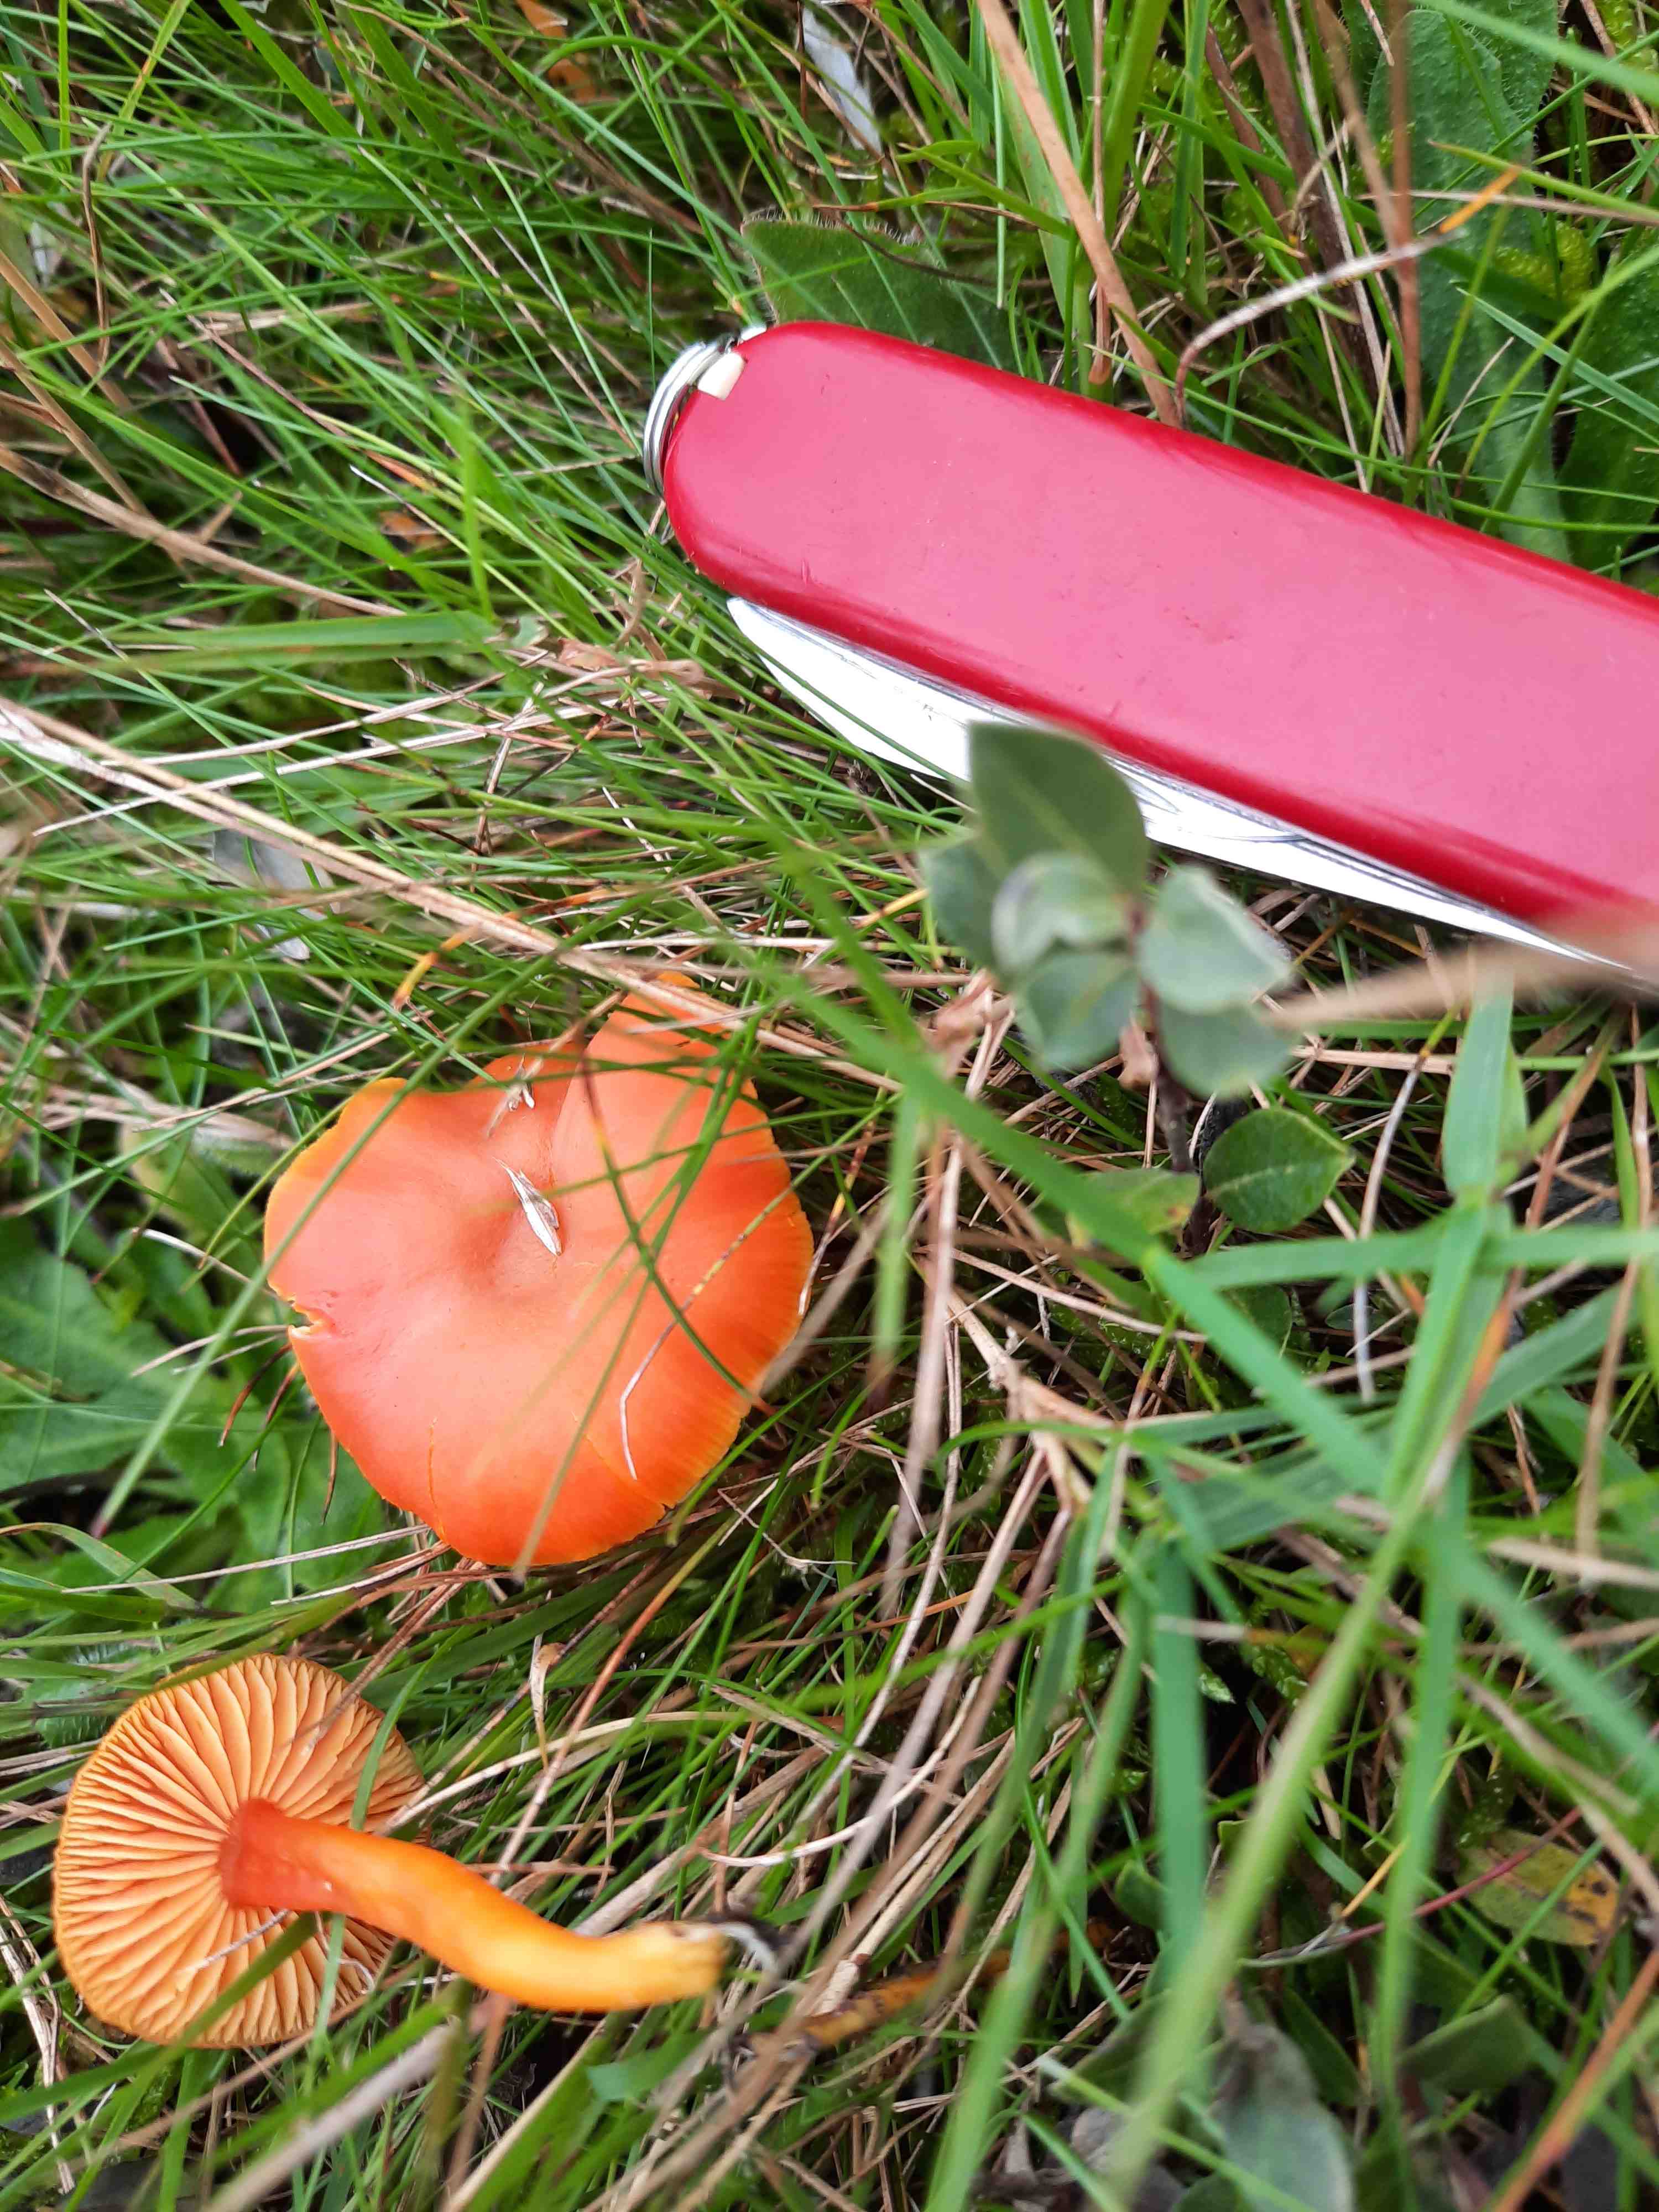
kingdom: Fungi
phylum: Basidiomycota
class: Agaricomycetes
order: Agaricales
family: Hygrophoraceae
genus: Hygrocybe
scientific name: Hygrocybe miniata
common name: mønje-vokshat
